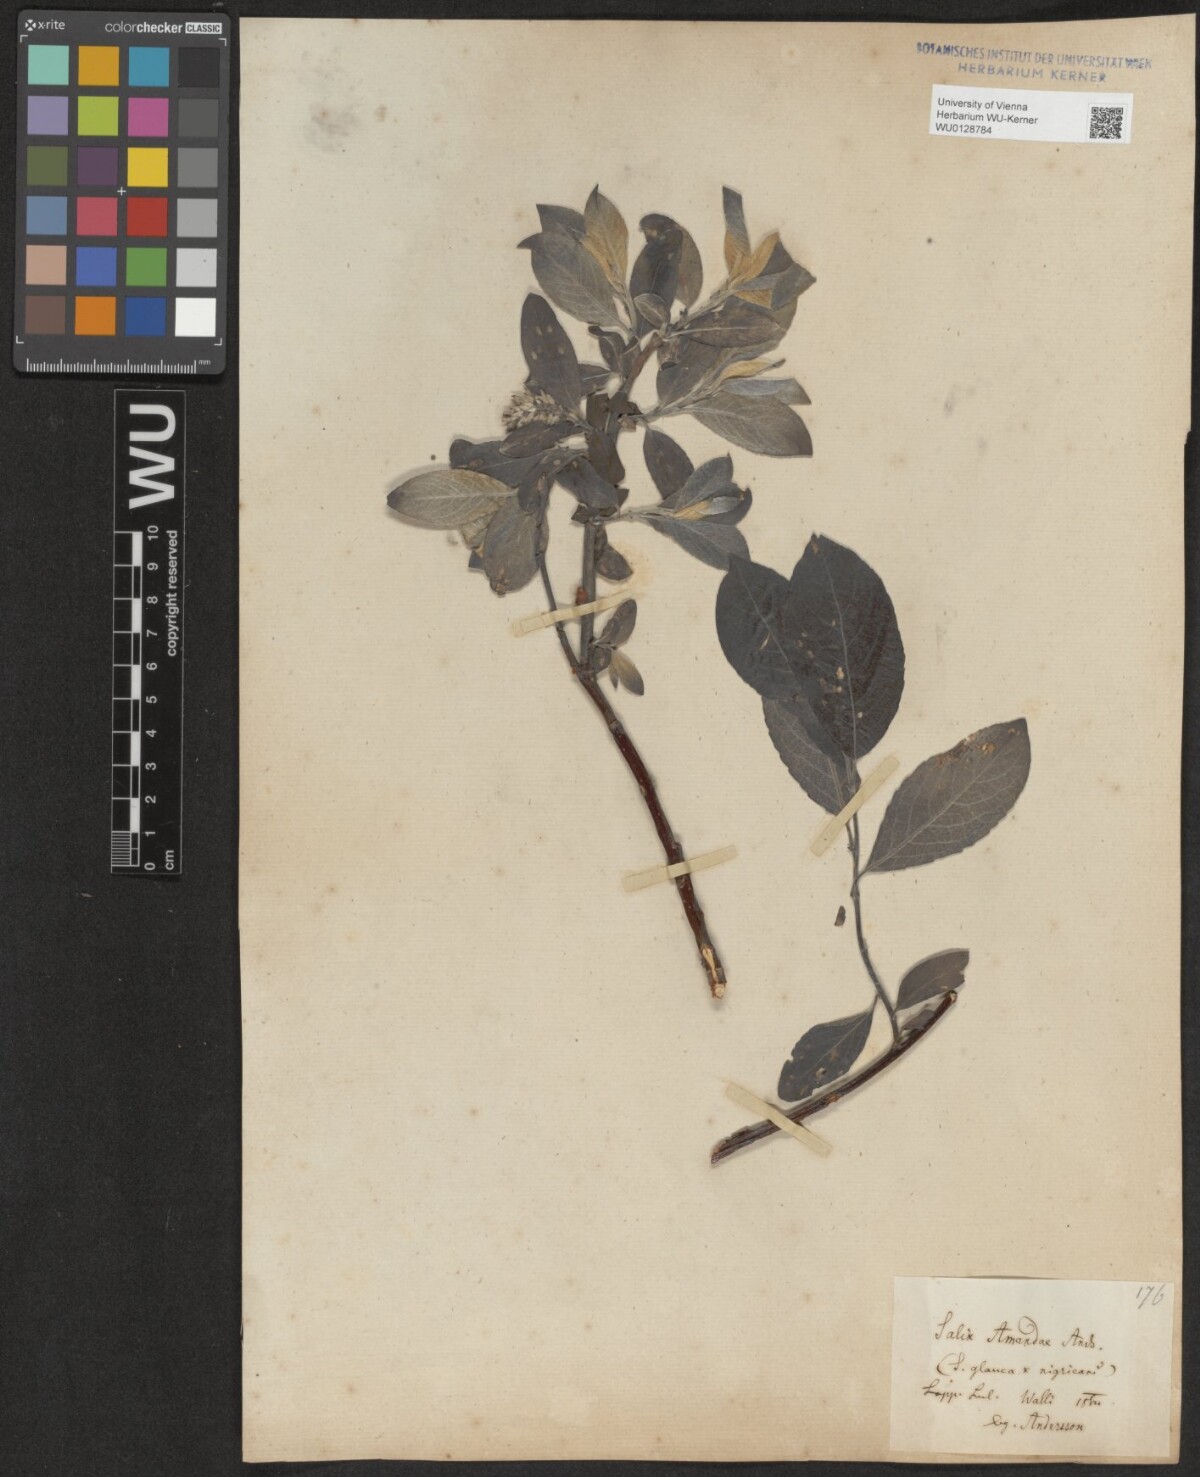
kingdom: Plantae
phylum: Tracheophyta
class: Magnoliopsida
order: Malpighiales
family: Salicaceae
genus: Salix
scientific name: Salix glauca
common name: Glaucous willow
